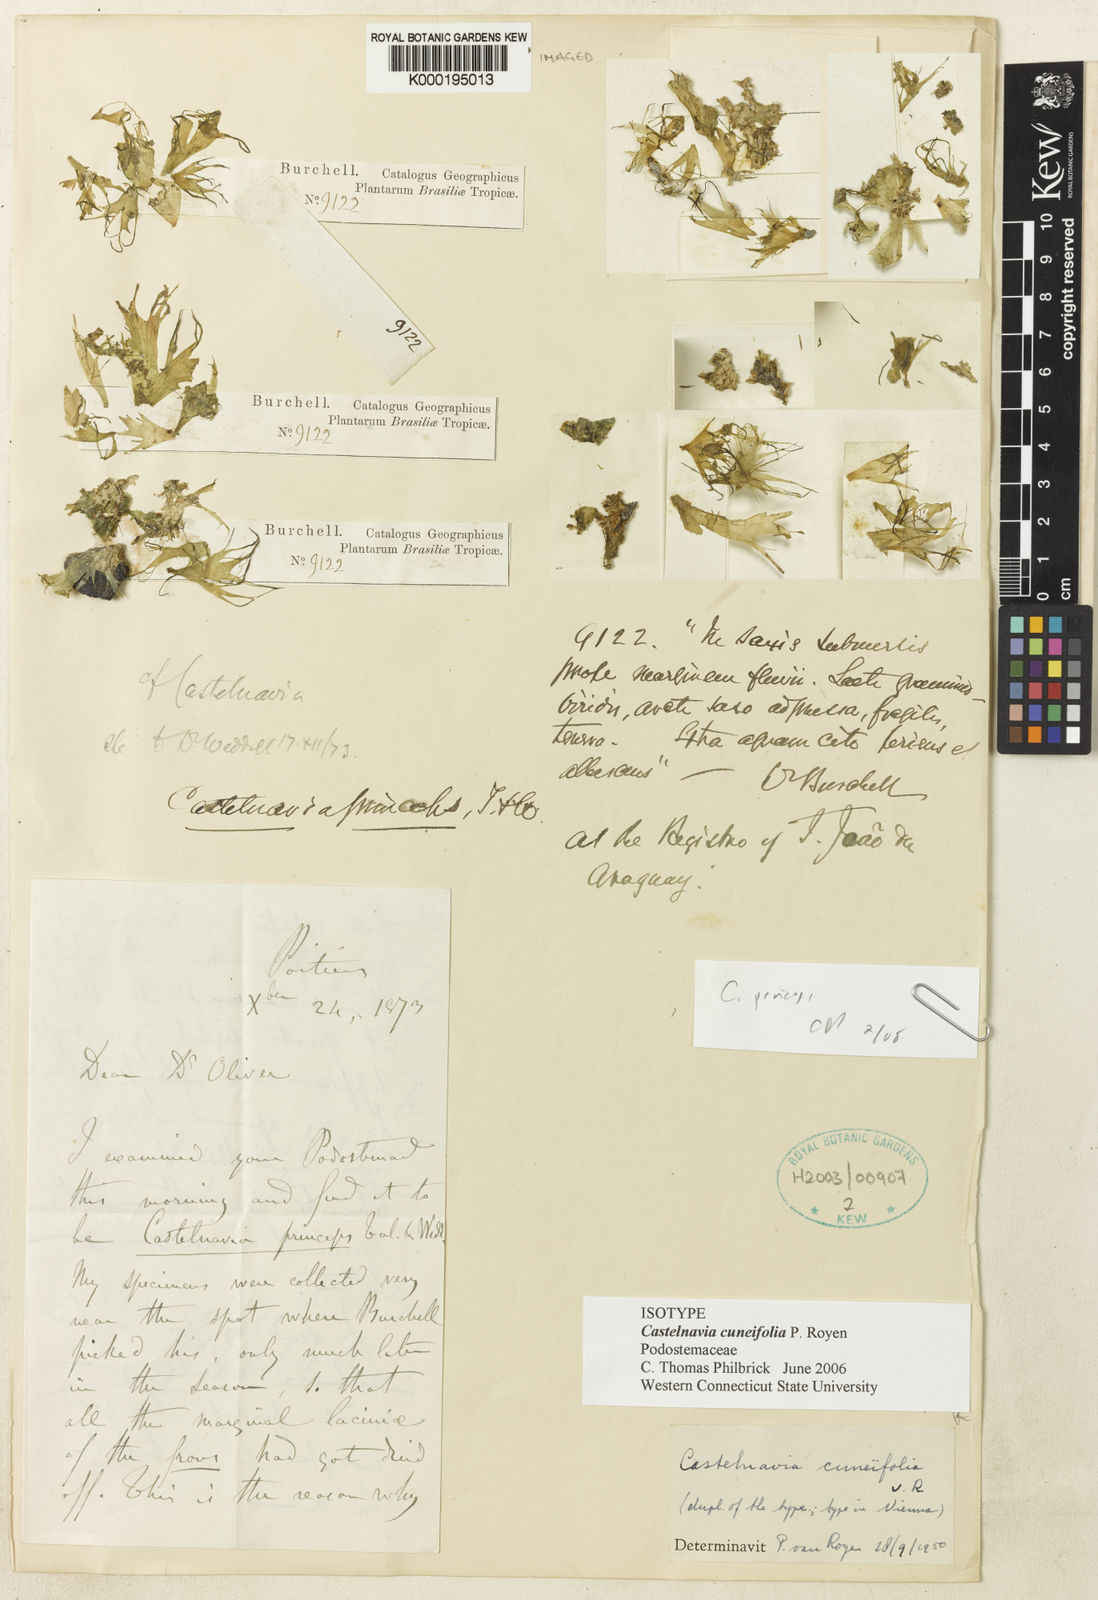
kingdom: Plantae
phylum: Tracheophyta
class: Magnoliopsida
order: Malpighiales
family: Podostemaceae
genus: Castelnavia
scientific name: Castelnavia princeps
